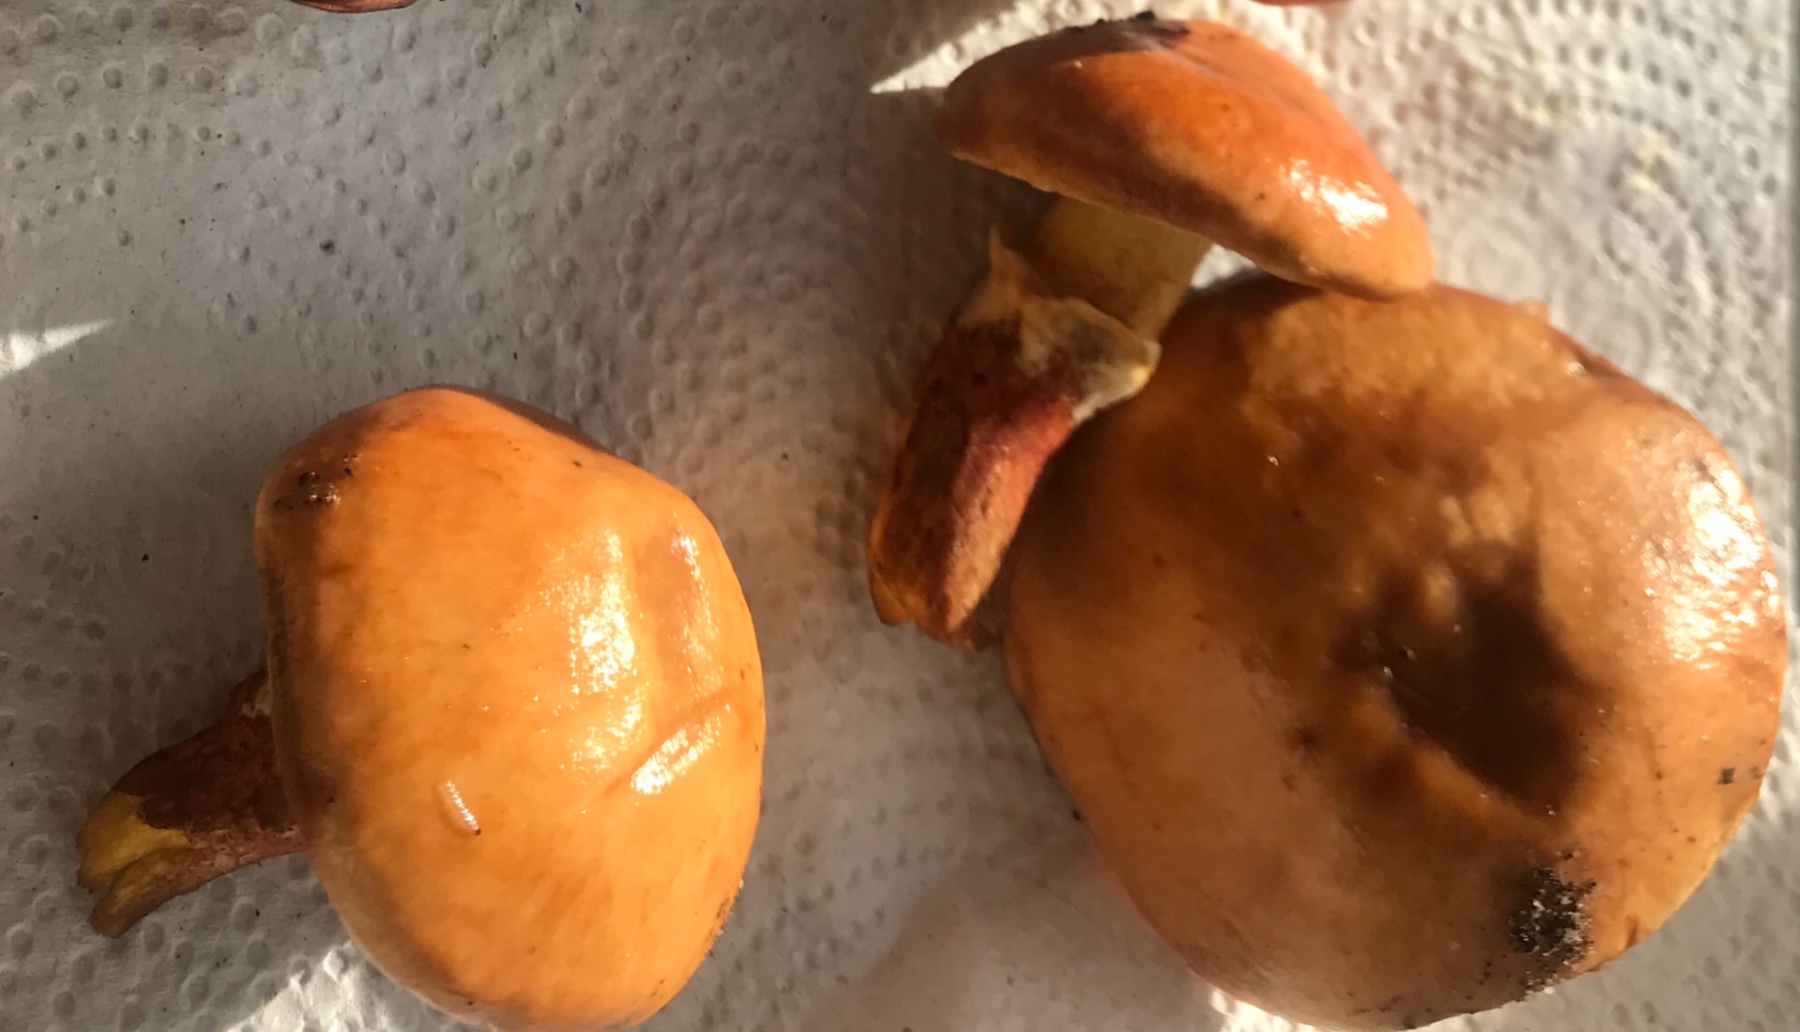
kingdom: Fungi
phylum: Basidiomycota
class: Agaricomycetes
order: Boletales
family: Suillaceae
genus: Suillus
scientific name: Suillus grevillei
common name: lærke-slimrørhat
